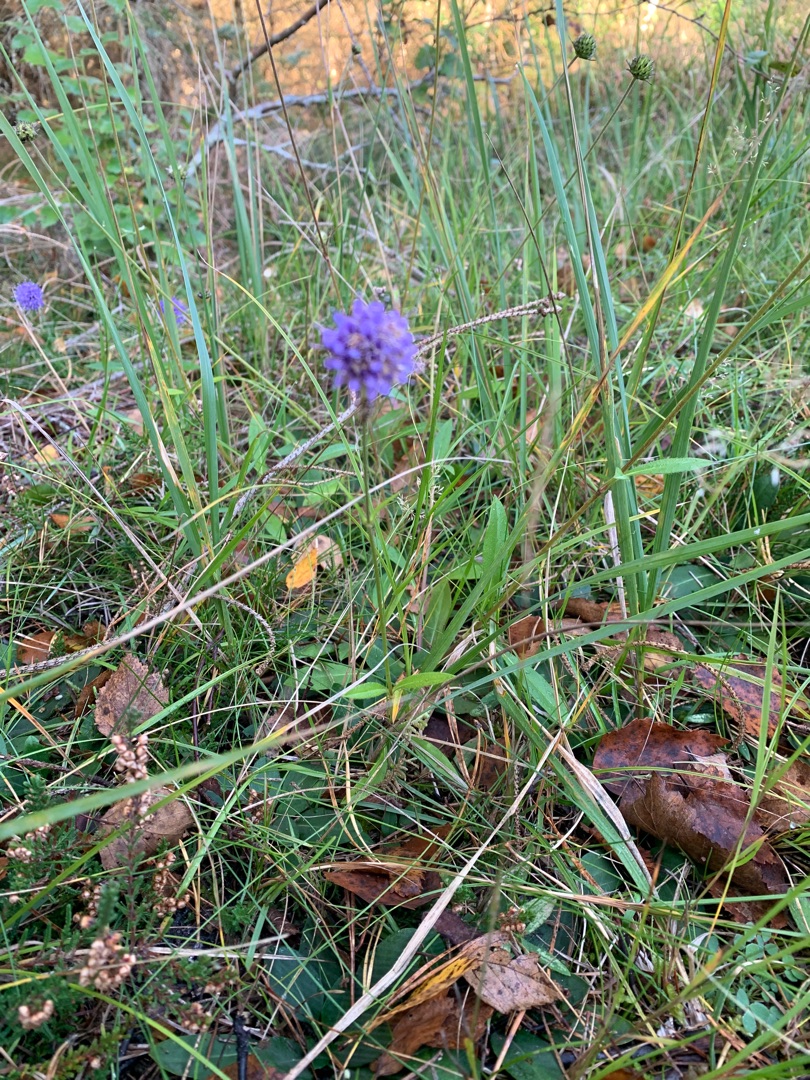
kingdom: Plantae
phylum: Tracheophyta
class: Magnoliopsida
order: Dipsacales
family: Caprifoliaceae
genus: Succisa
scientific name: Succisa pratensis
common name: Djævelsbid
